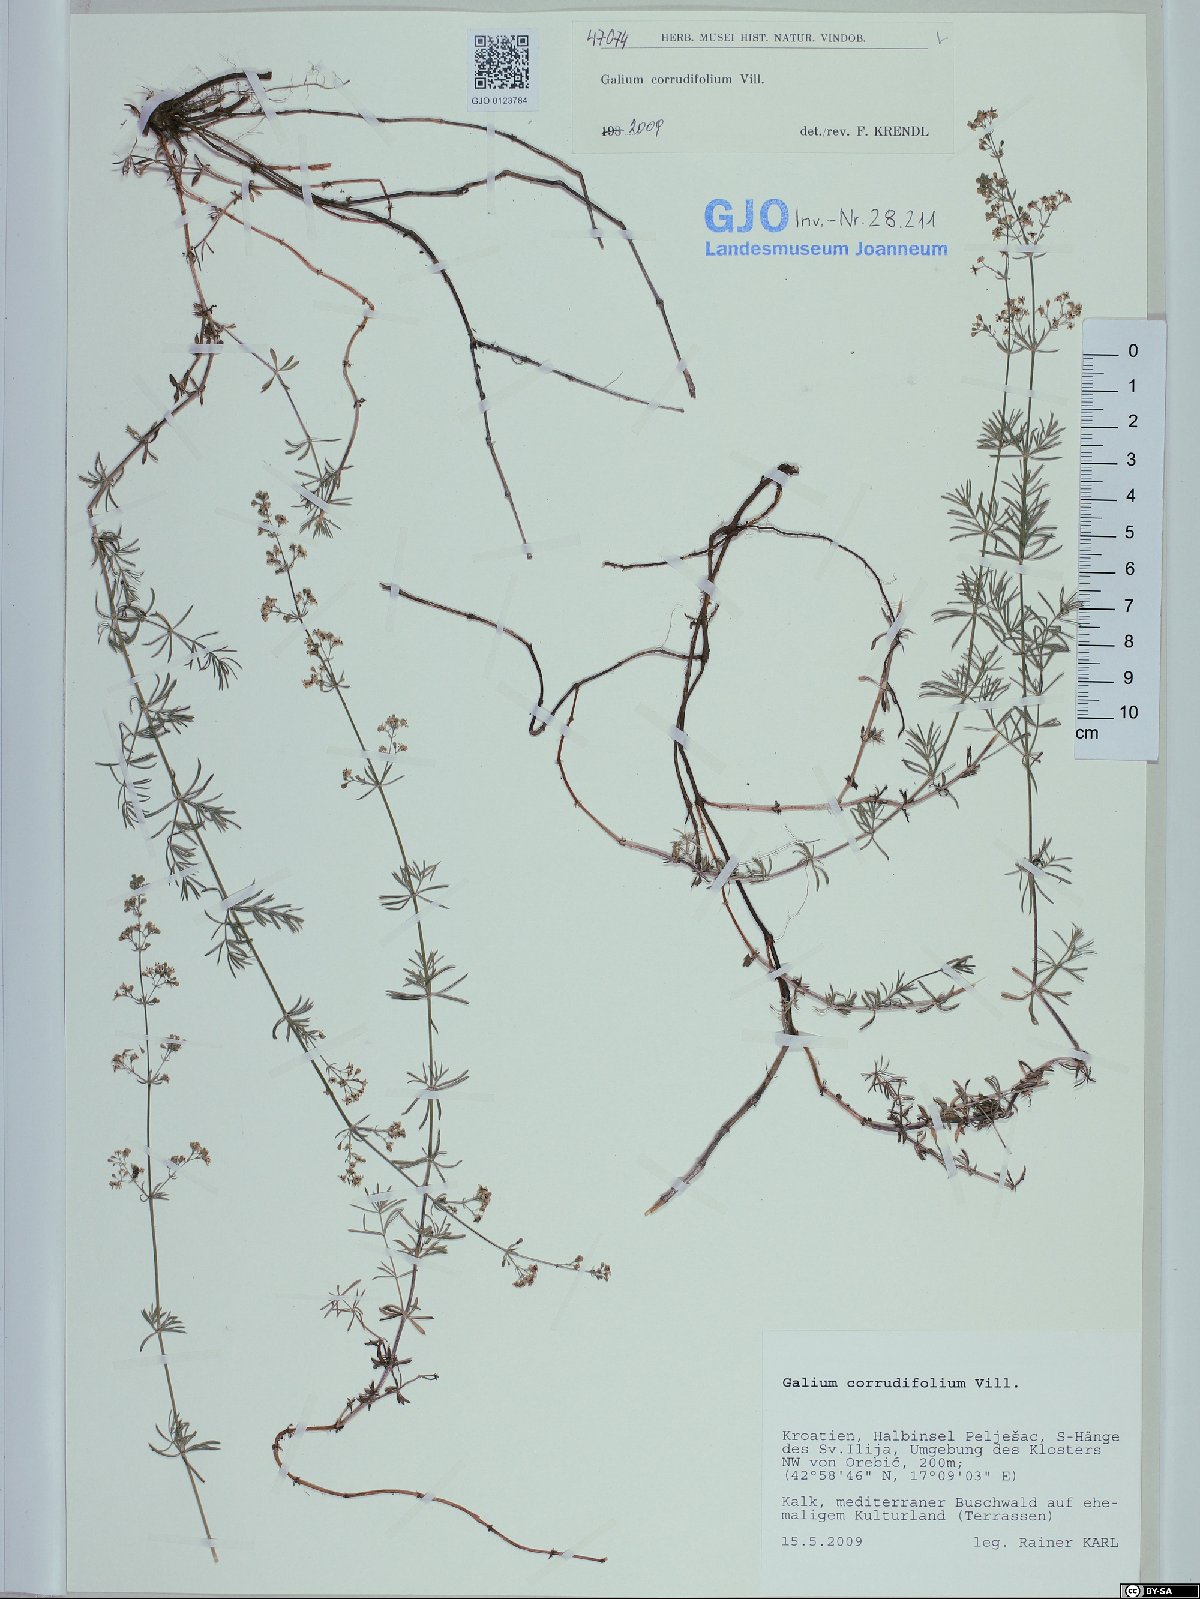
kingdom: Plantae
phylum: Tracheophyta
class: Magnoliopsida
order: Gentianales
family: Rubiaceae
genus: Galium
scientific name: Galium lucidum
